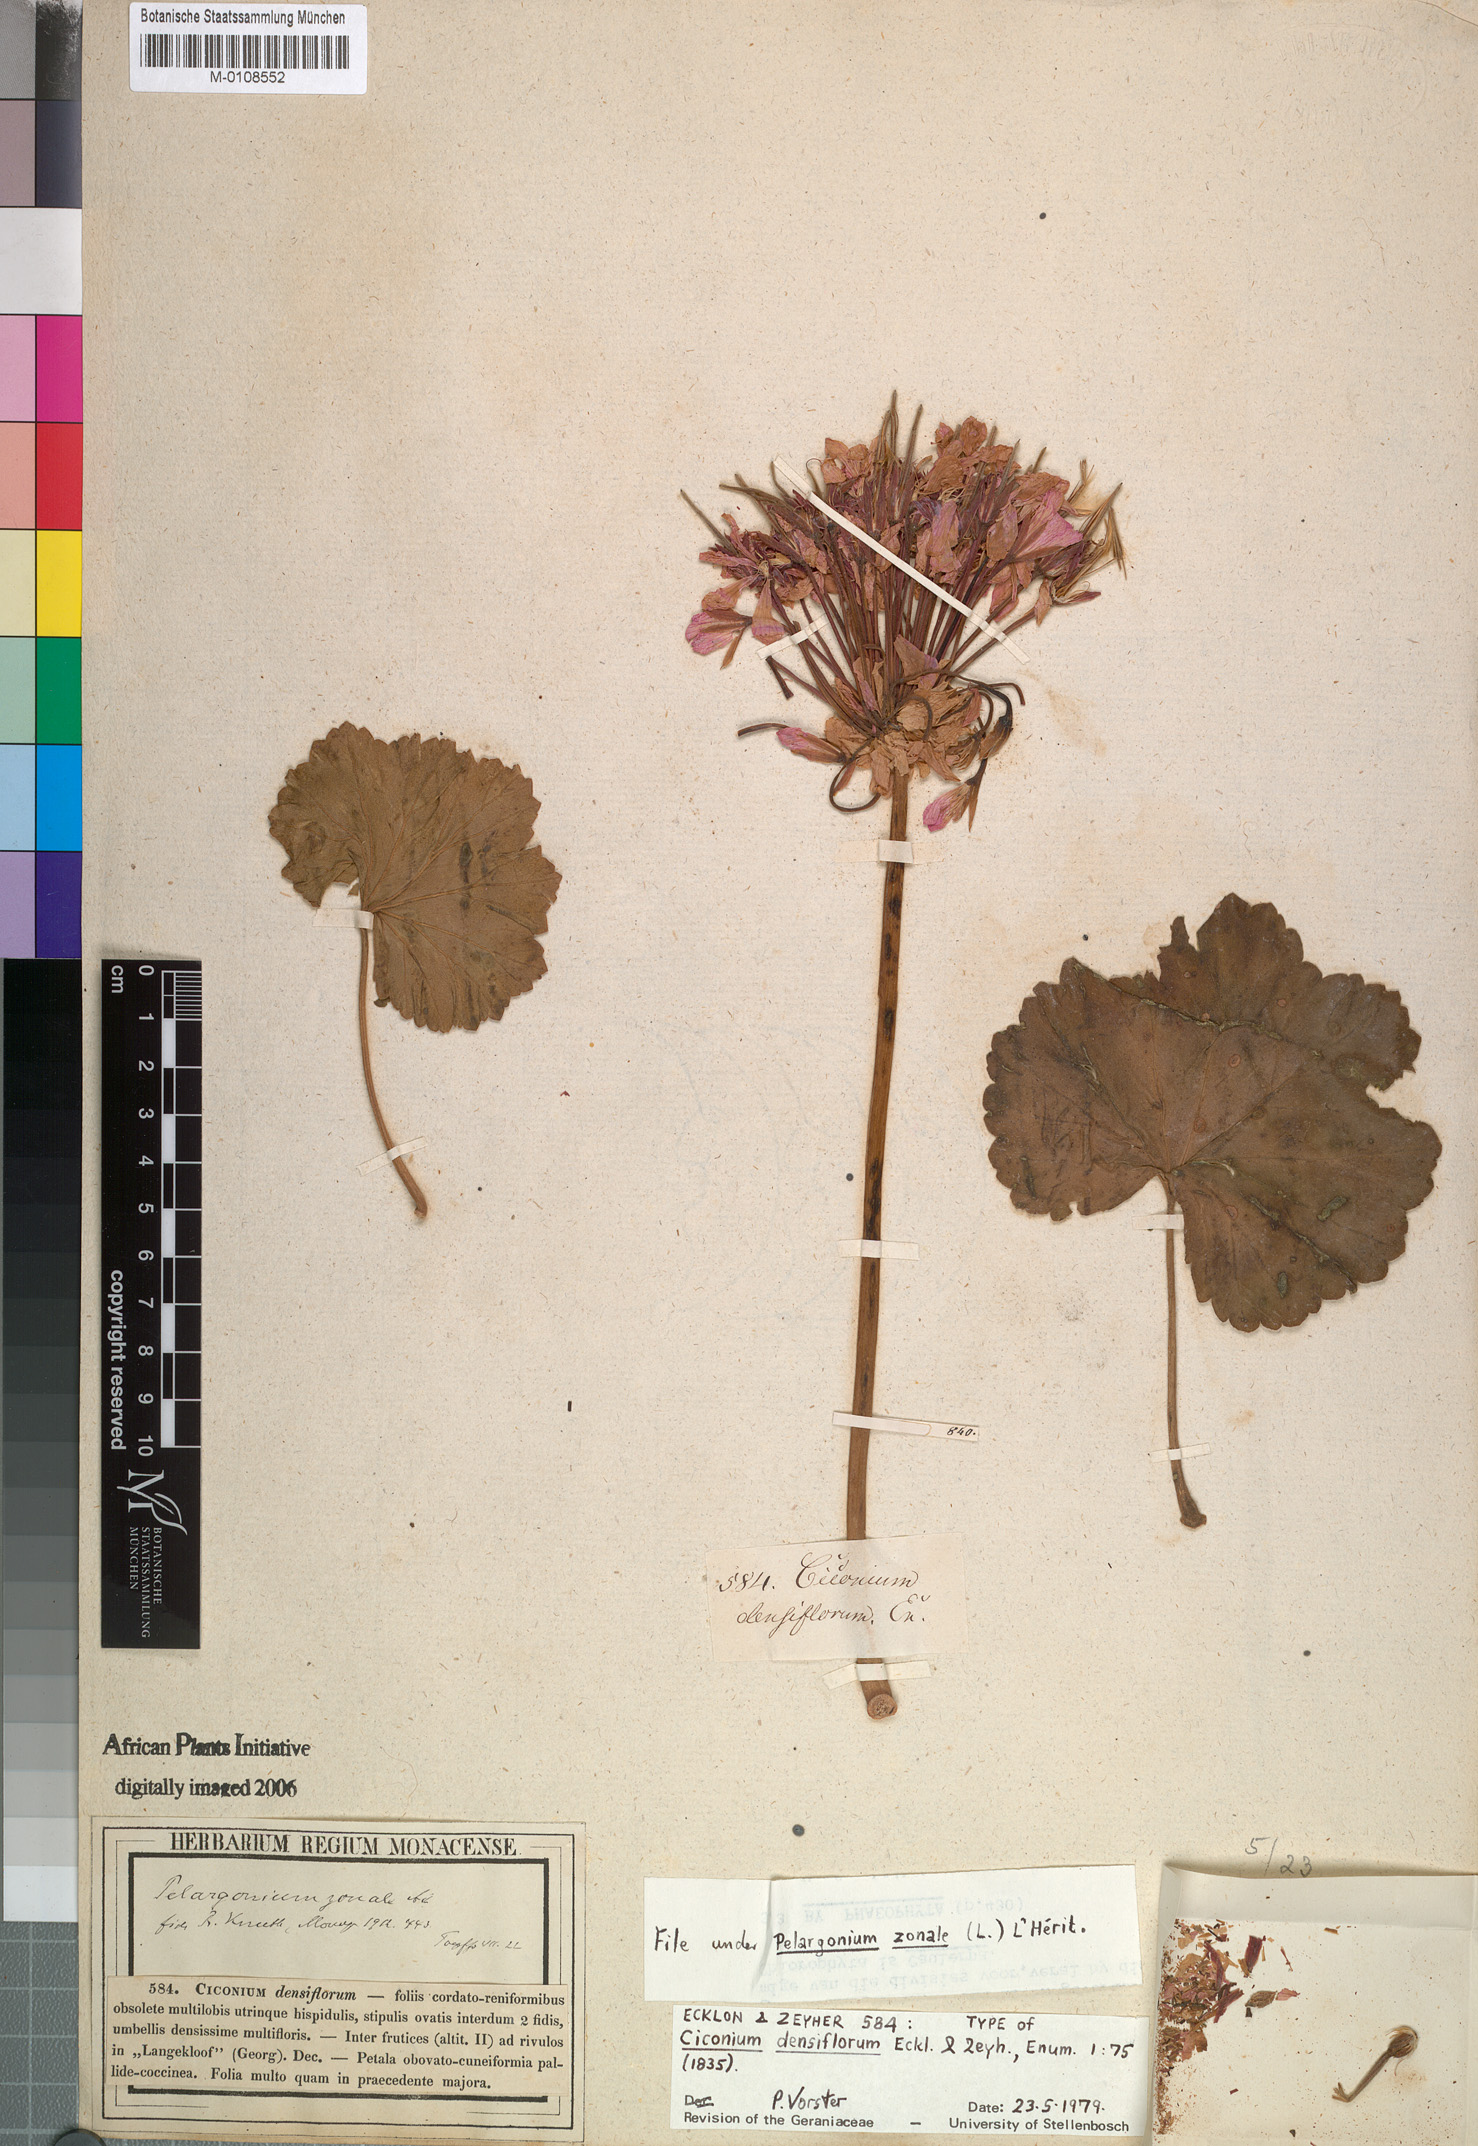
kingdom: Plantae
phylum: Tracheophyta
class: Magnoliopsida
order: Geraniales
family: Geraniaceae
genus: Pelargonium
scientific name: Pelargonium zonale
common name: Horseshoe geranium
